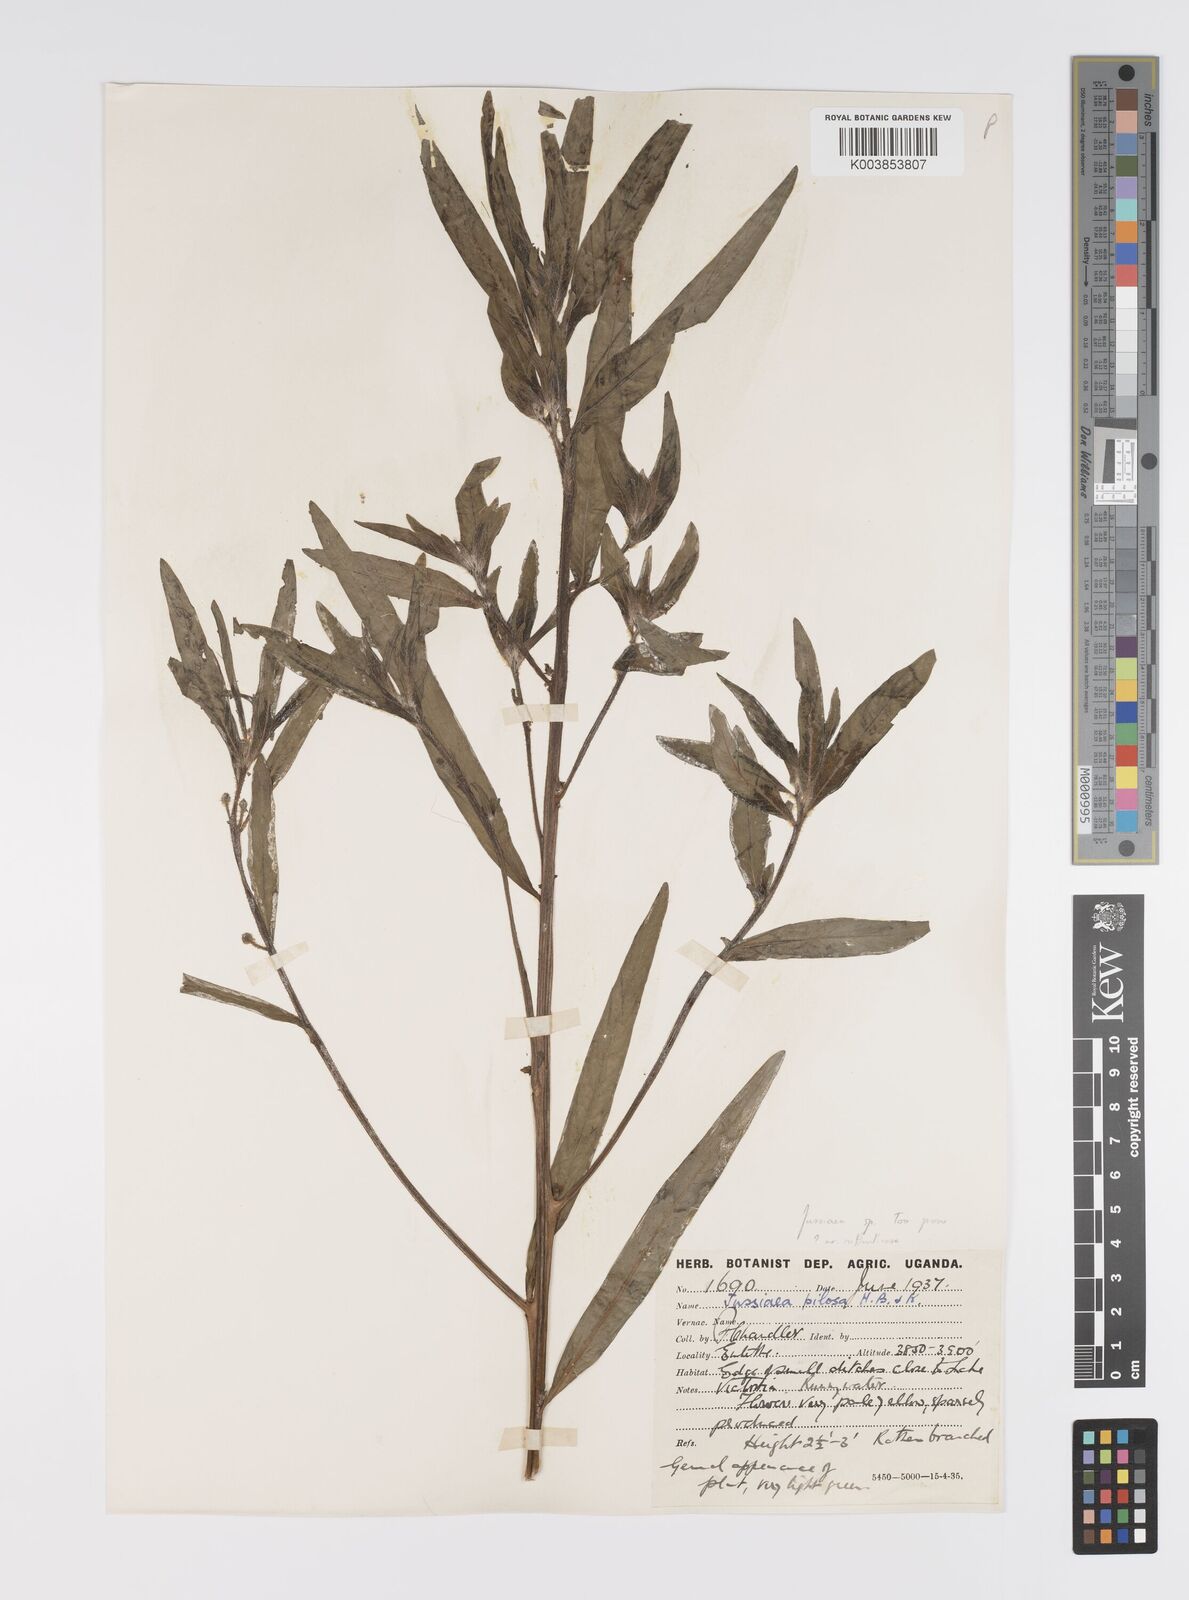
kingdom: Plantae
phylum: Tracheophyta
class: Magnoliopsida
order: Myrtales
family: Onagraceae
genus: Ludwigia
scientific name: Ludwigia
